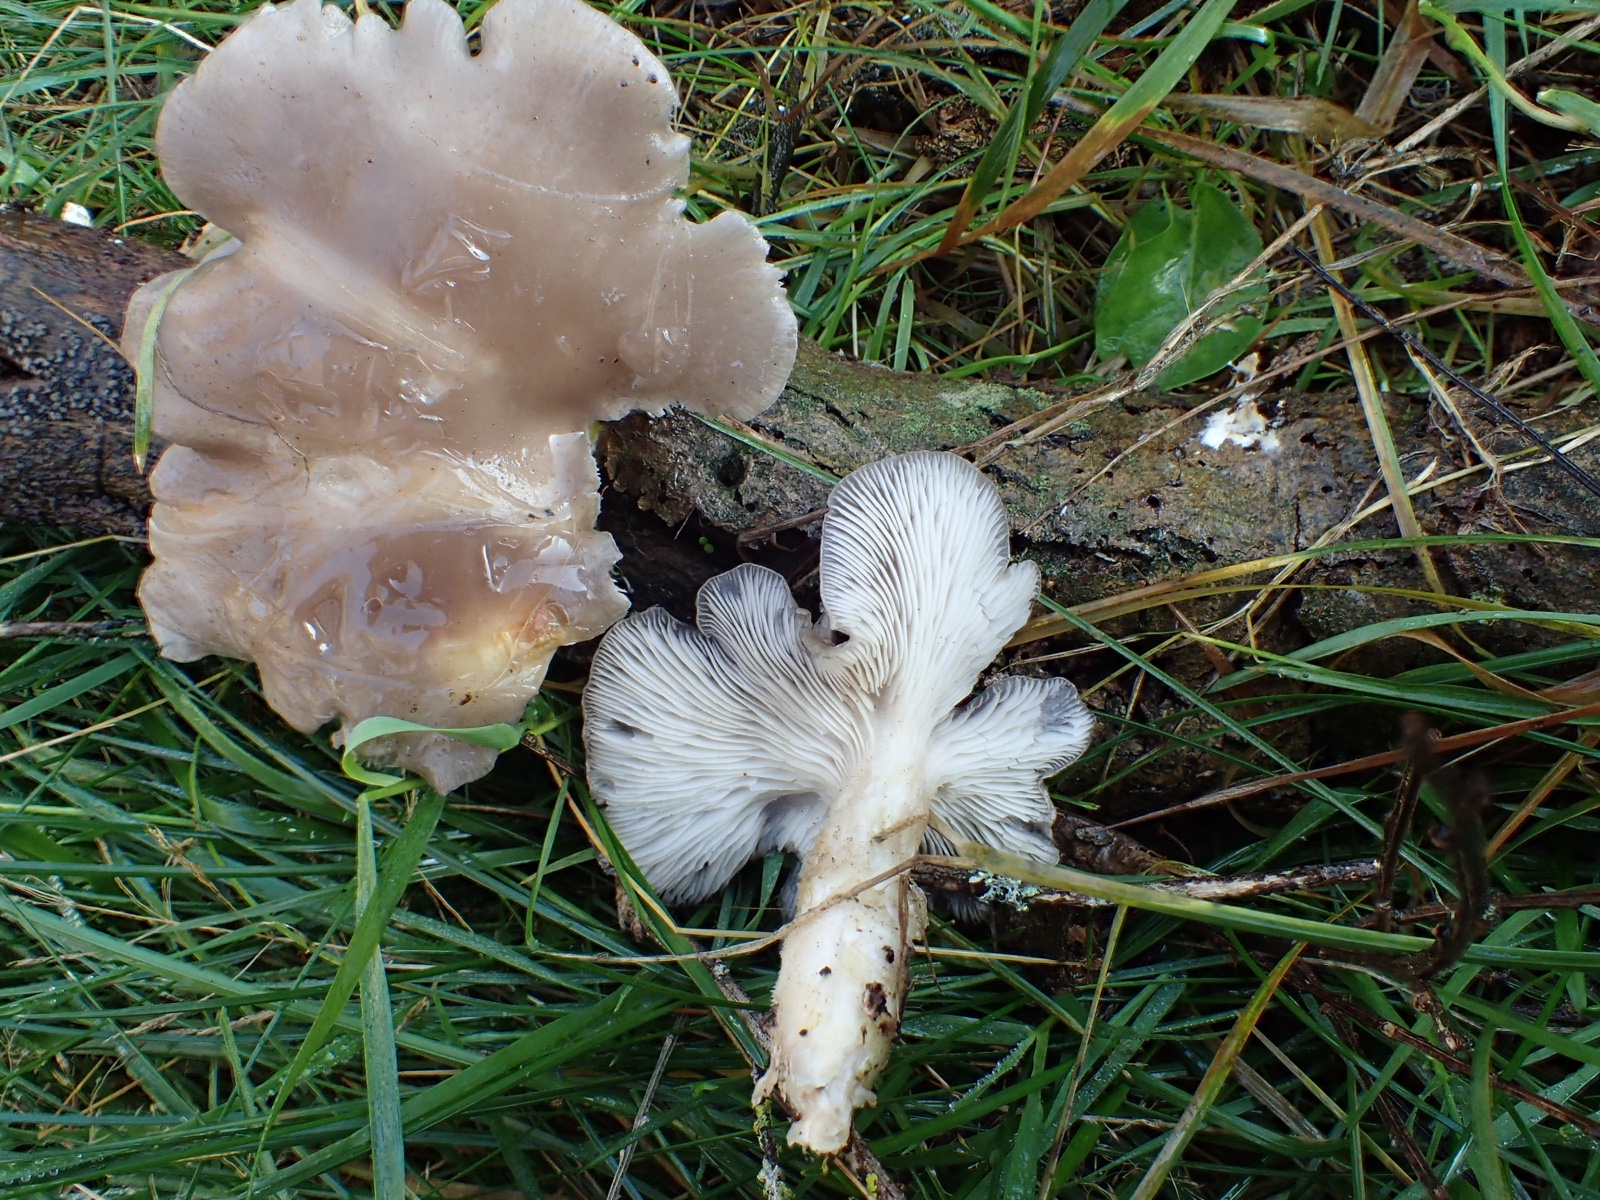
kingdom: Fungi
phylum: Basidiomycota
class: Agaricomycetes
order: Agaricales
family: Pleurotaceae
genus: Pleurotus
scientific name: Pleurotus ostreatus
